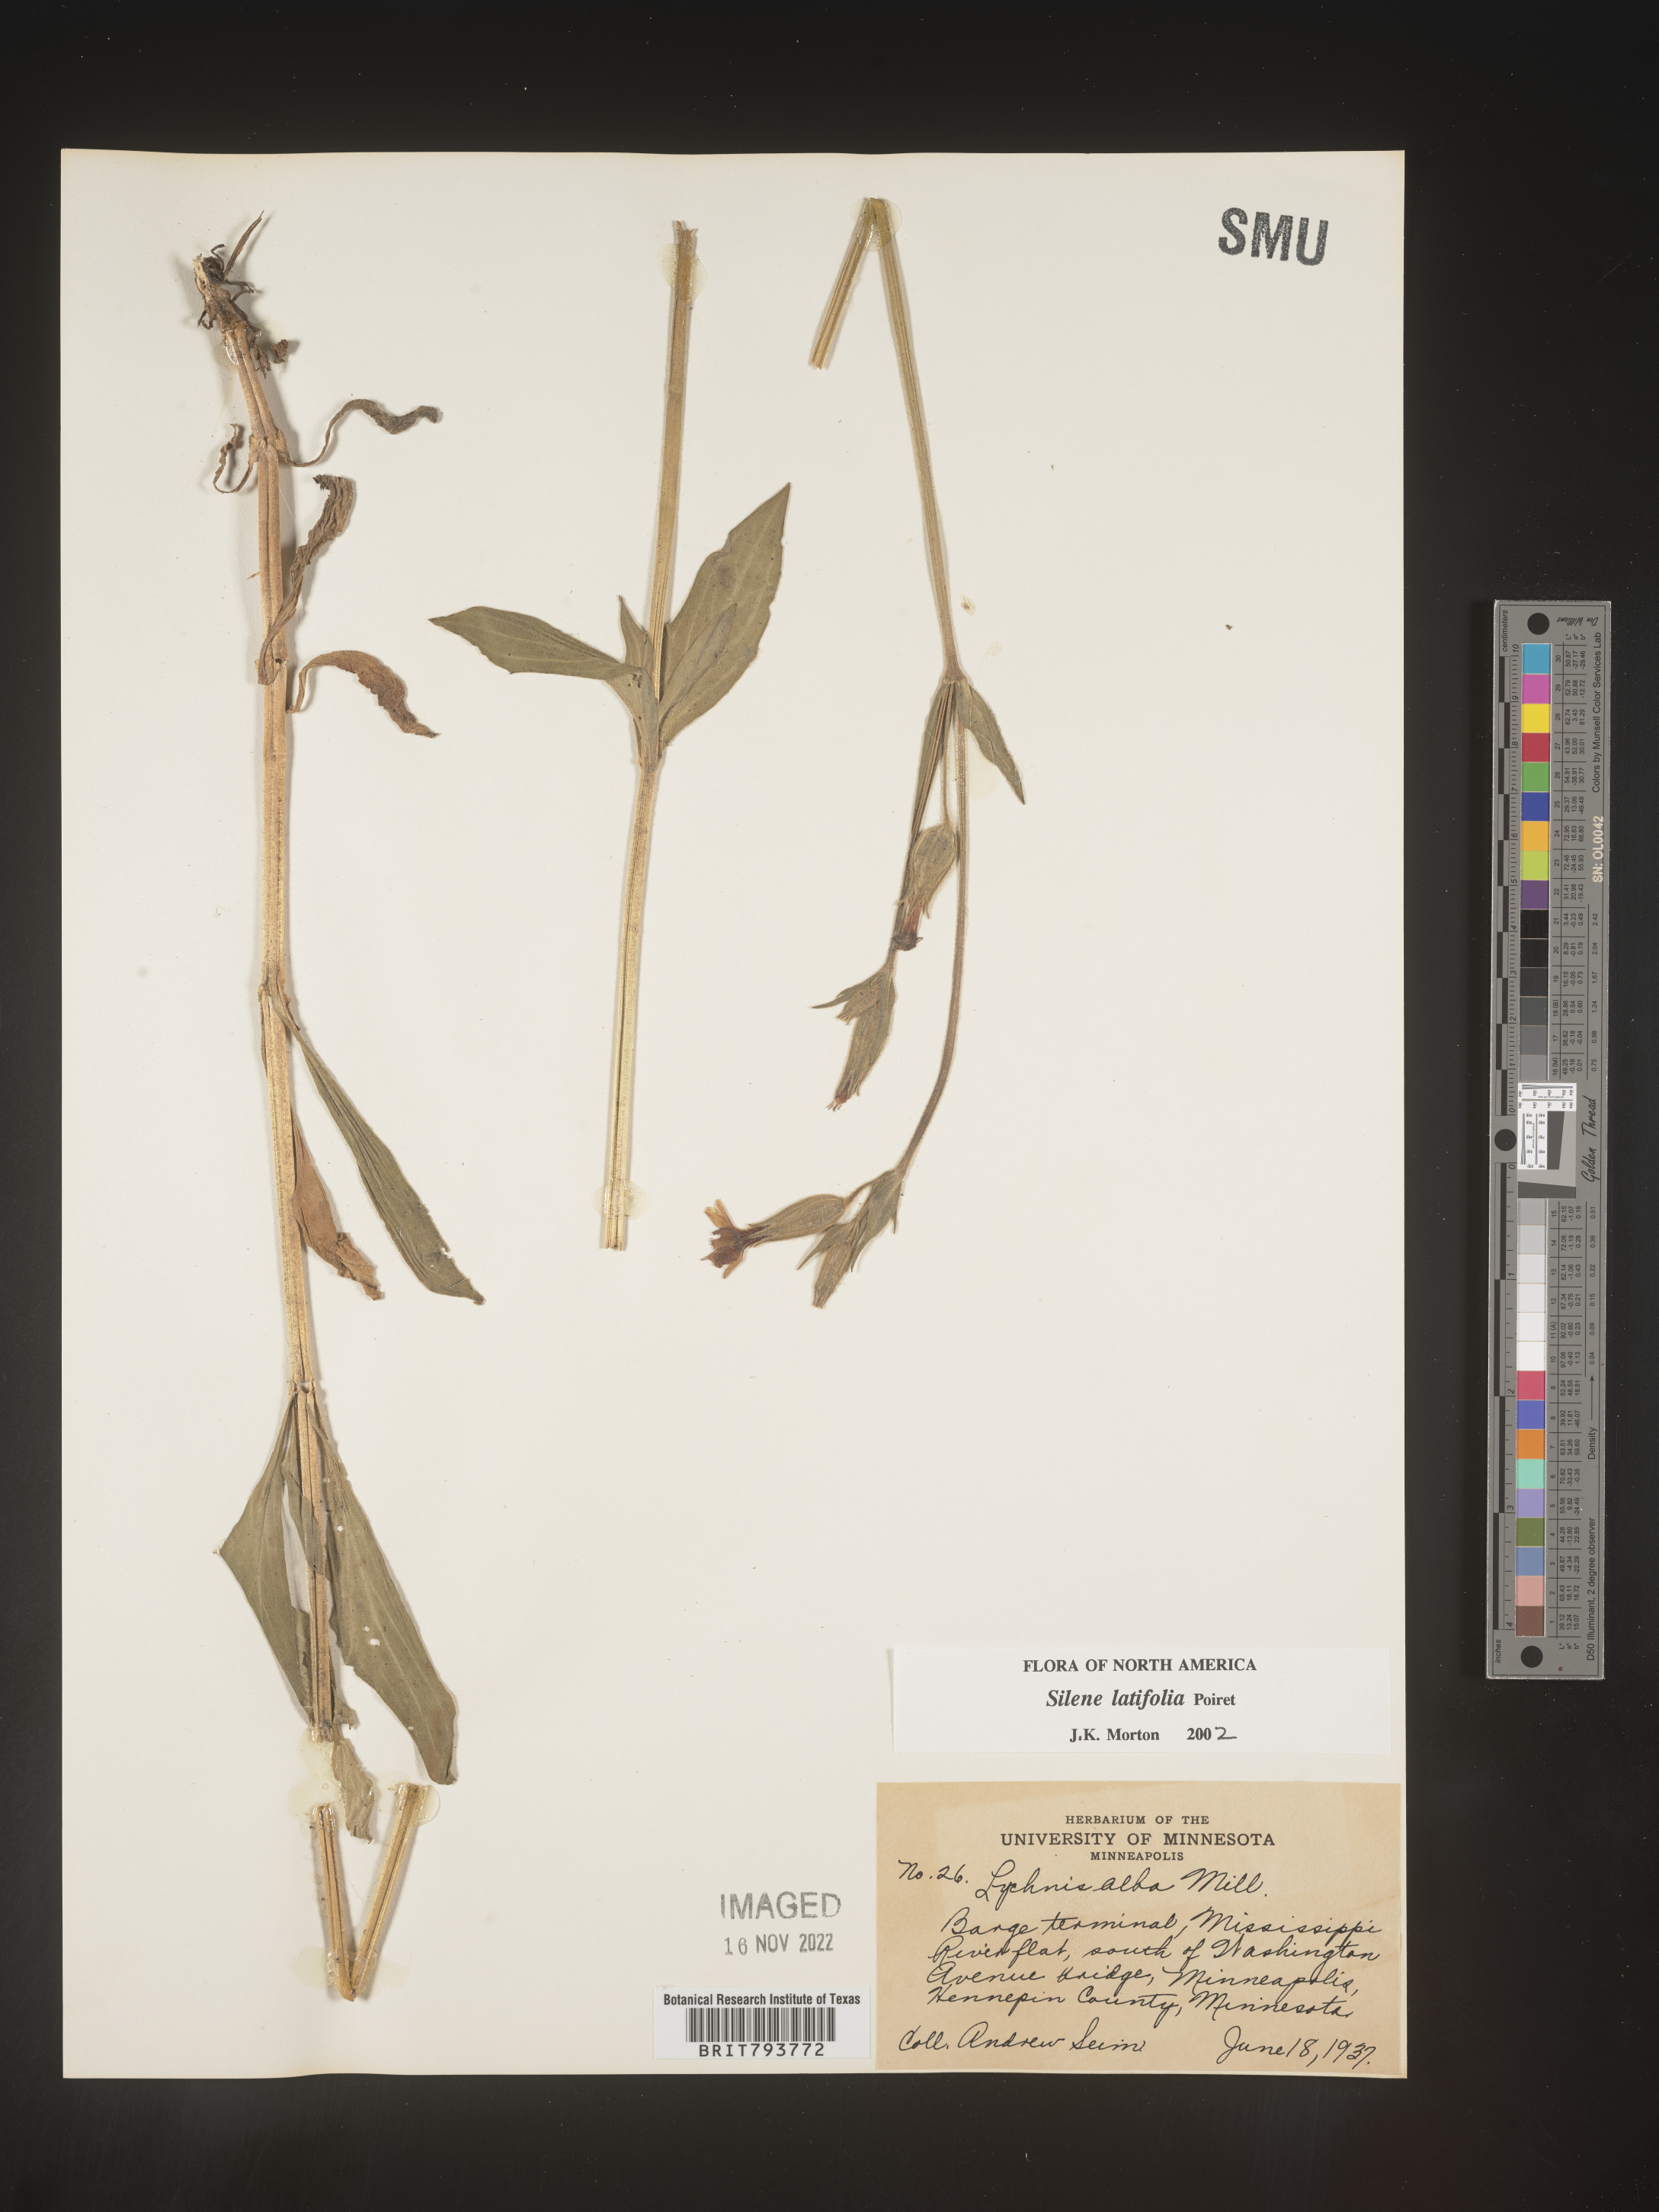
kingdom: Plantae
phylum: Tracheophyta
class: Magnoliopsida
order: Caryophyllales
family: Caryophyllaceae
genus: Silene
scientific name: Silene latifolia
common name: White campion
